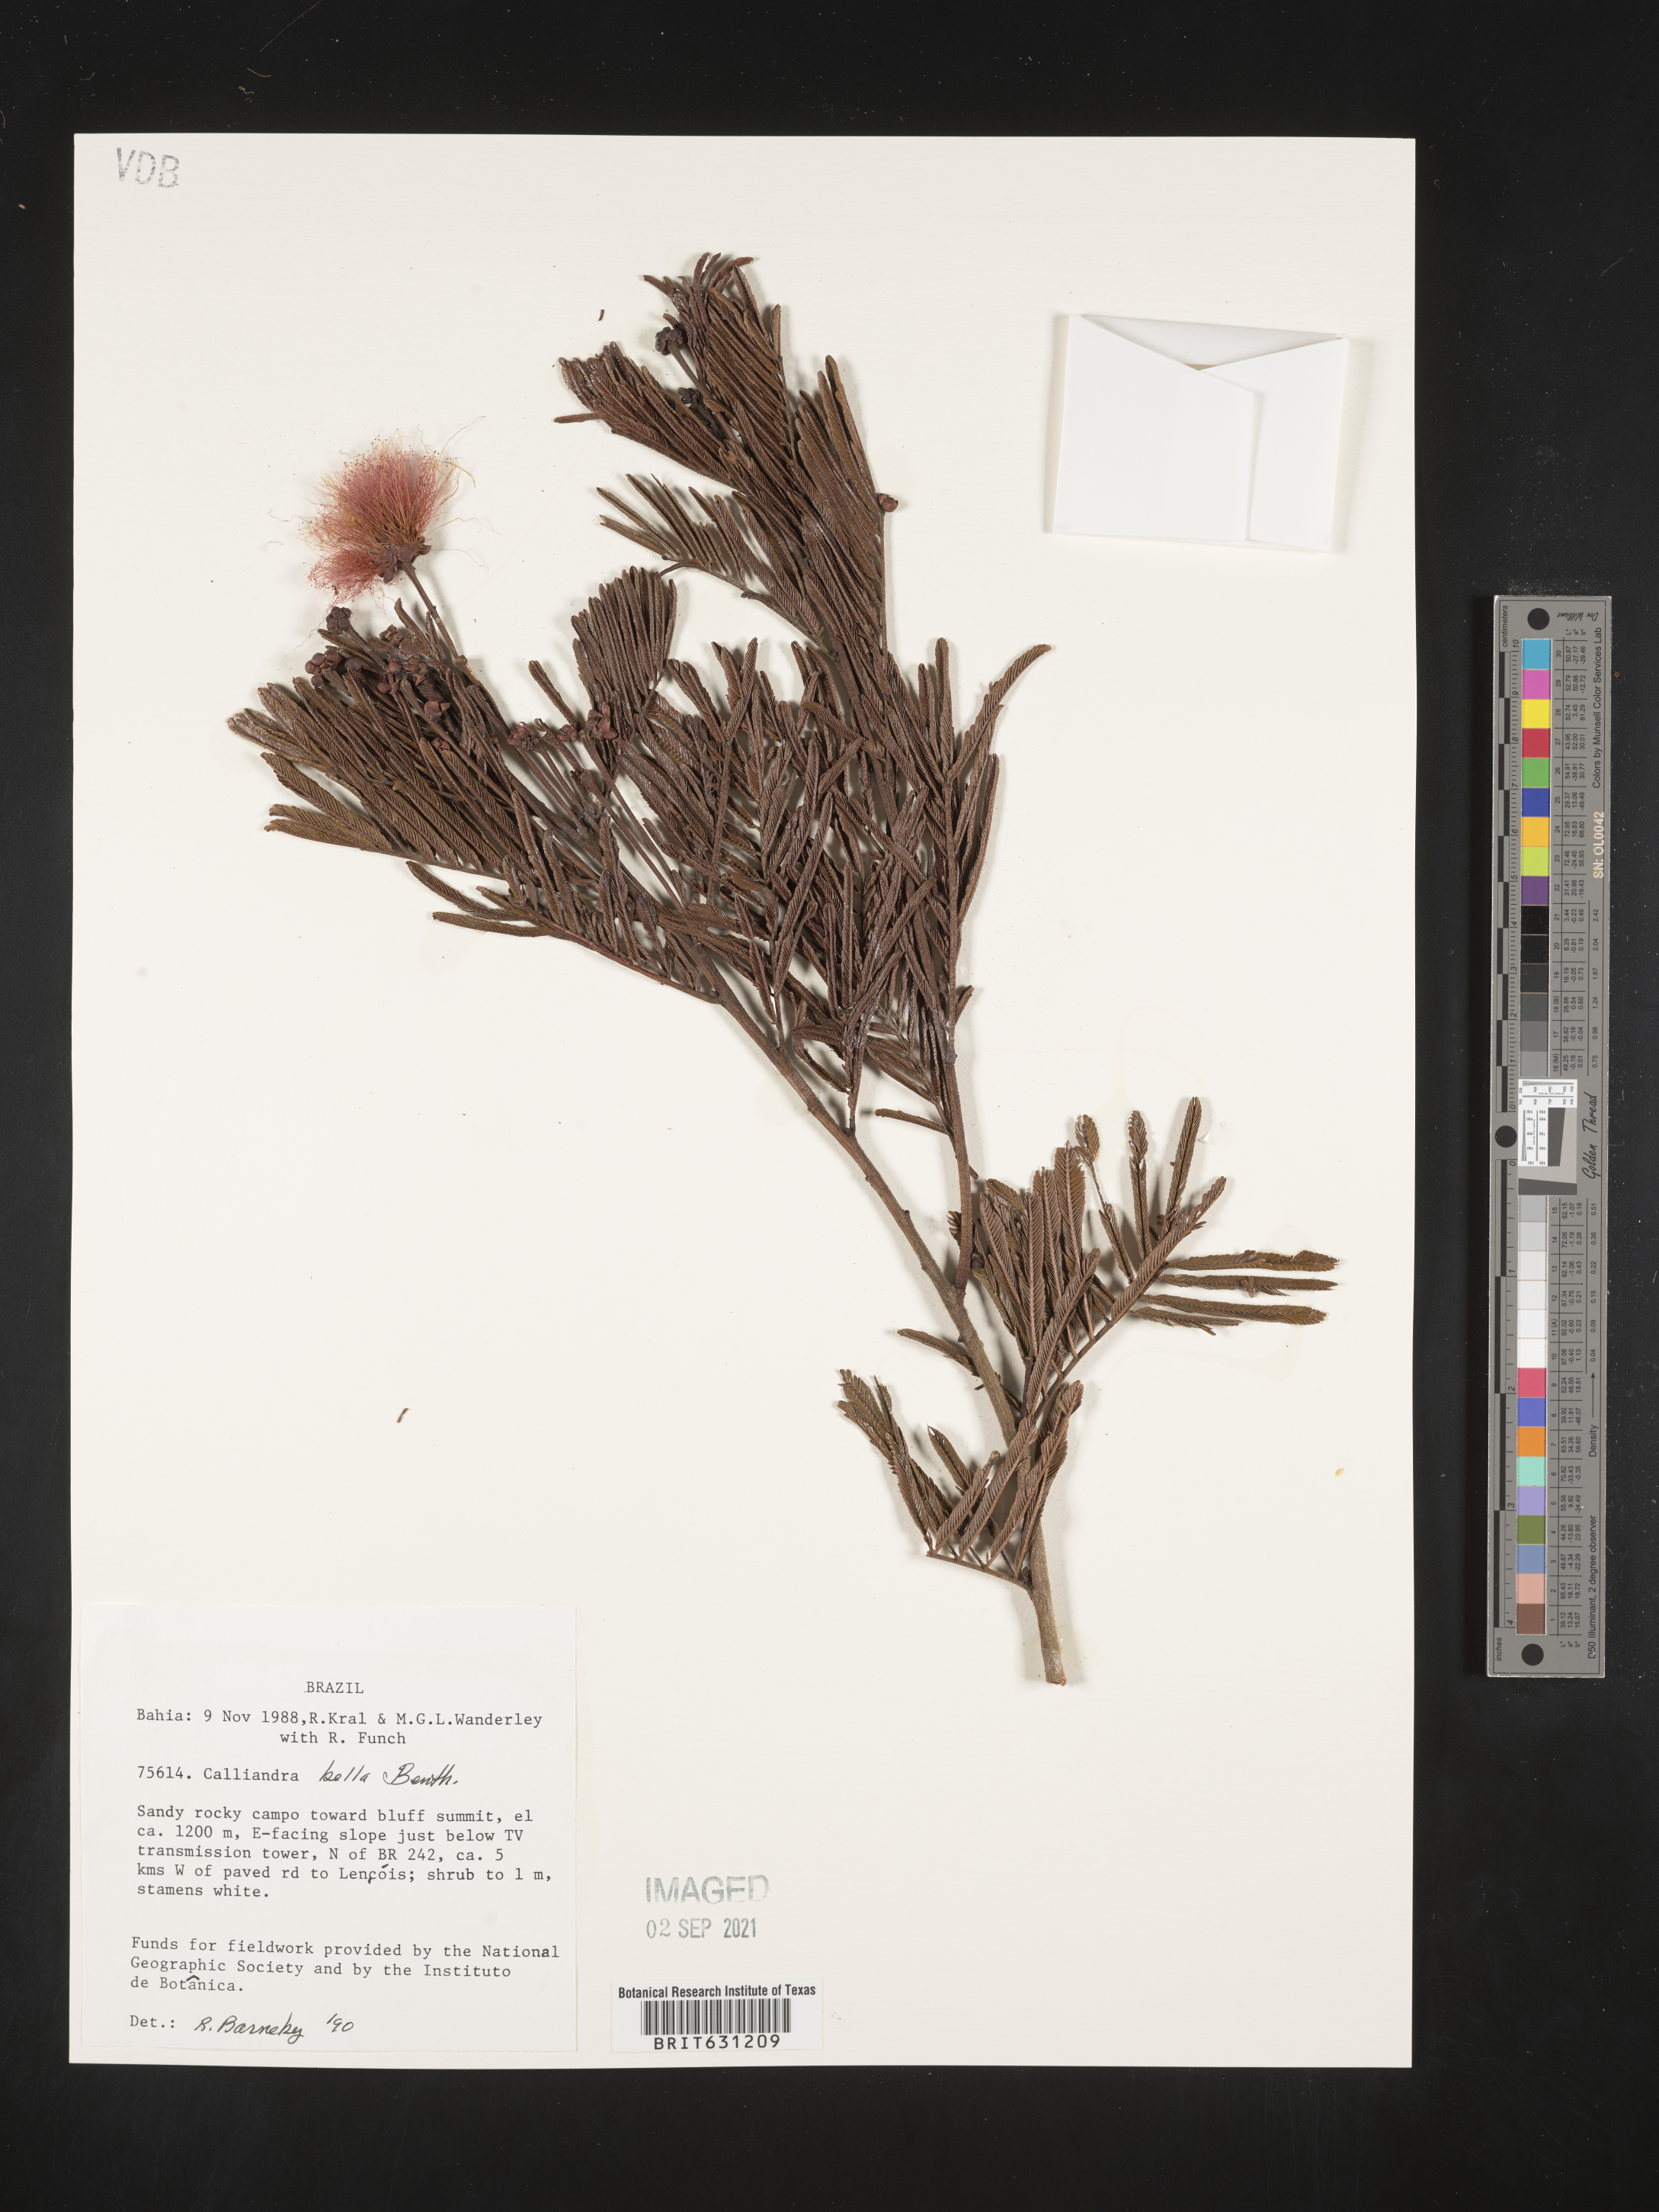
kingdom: Plantae
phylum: Tracheophyta
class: Magnoliopsida
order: Fabales
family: Fabaceae
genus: Calliandra
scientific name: Calliandra bella
